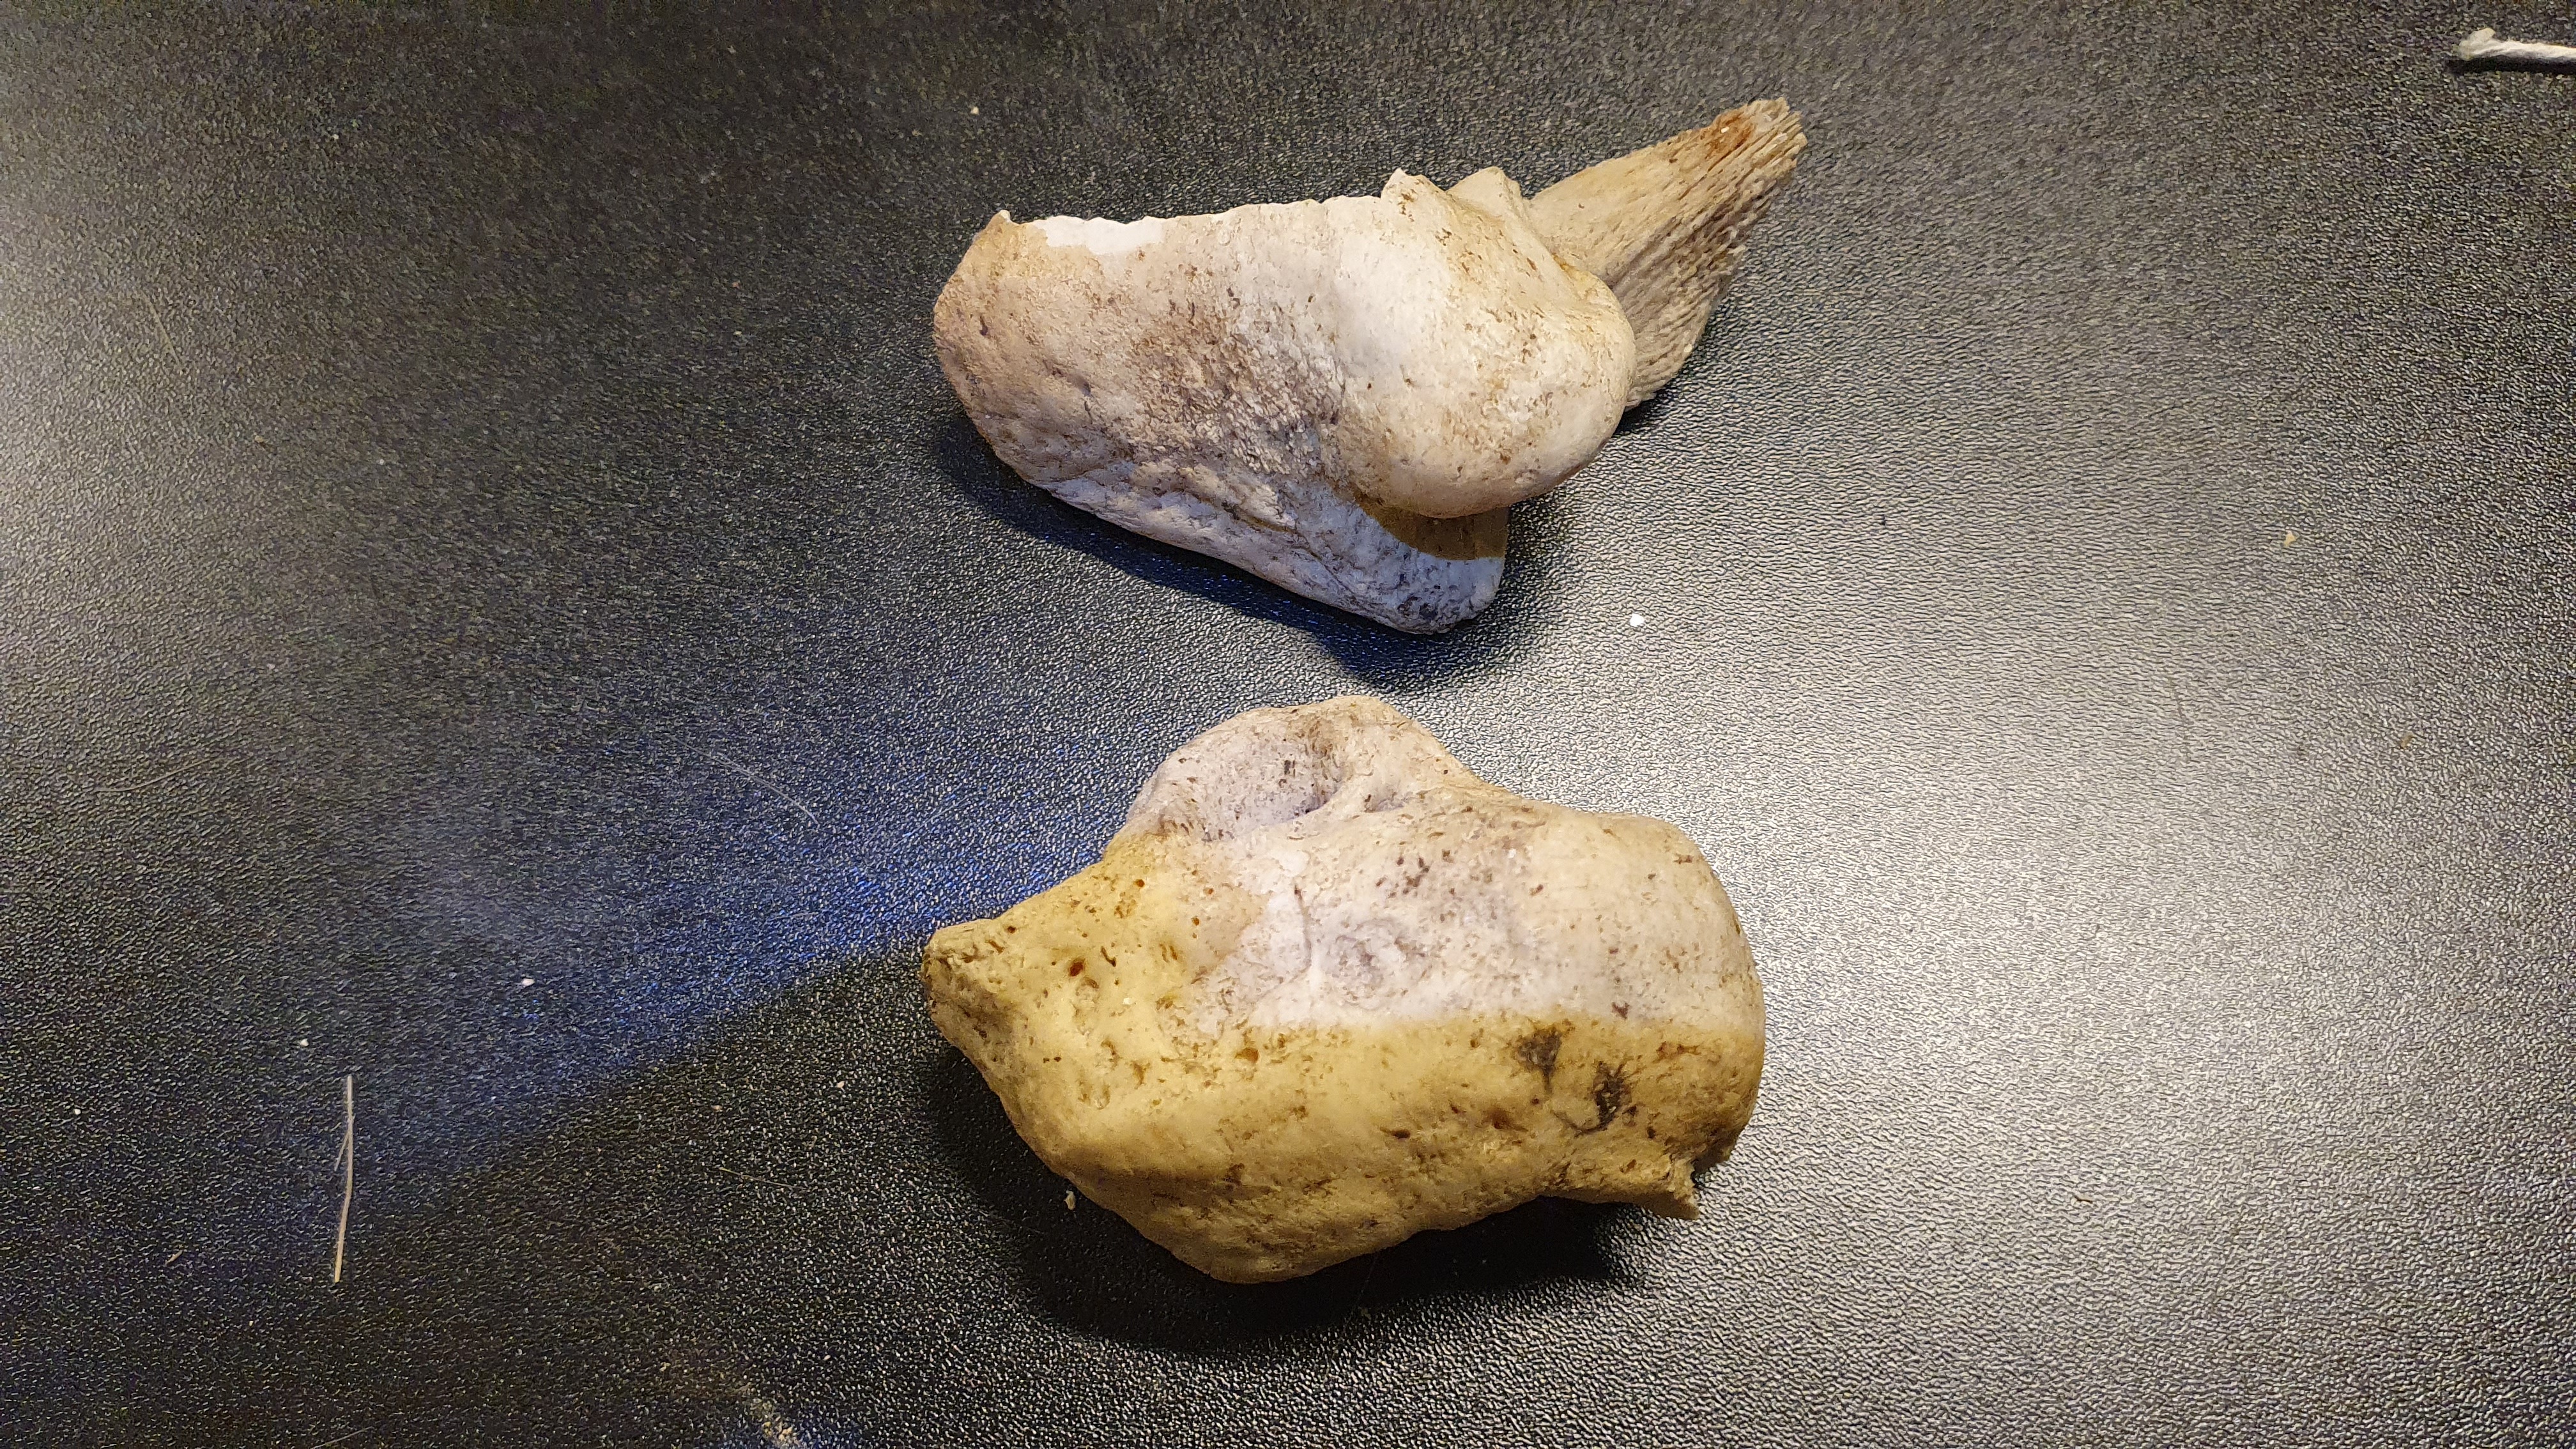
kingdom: Animalia
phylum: Chordata
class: Mammalia
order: Cetacea
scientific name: Cetacea
